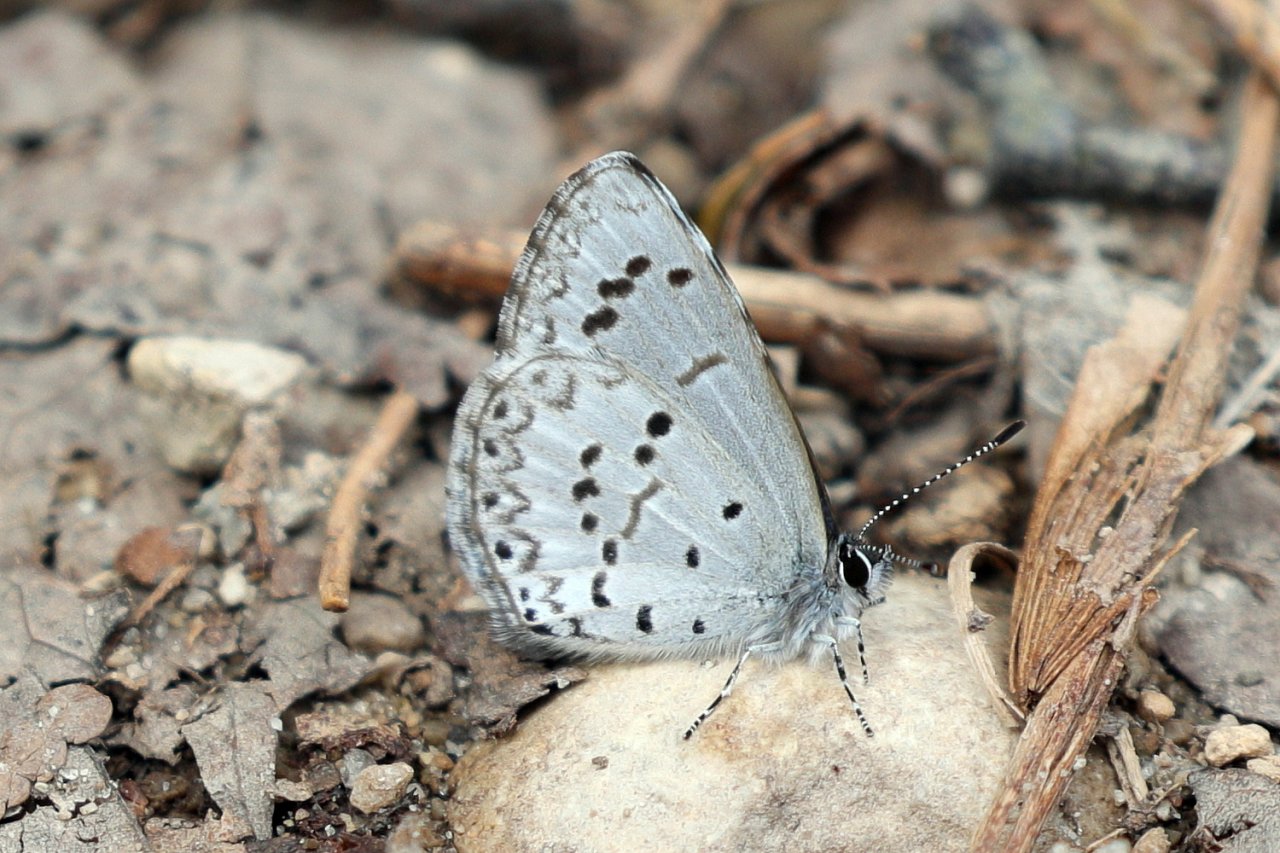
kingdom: Animalia
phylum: Arthropoda
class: Insecta
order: Lepidoptera
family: Lycaenidae
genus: Celastrina
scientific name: Celastrina lucia
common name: Northern Spring Azure
